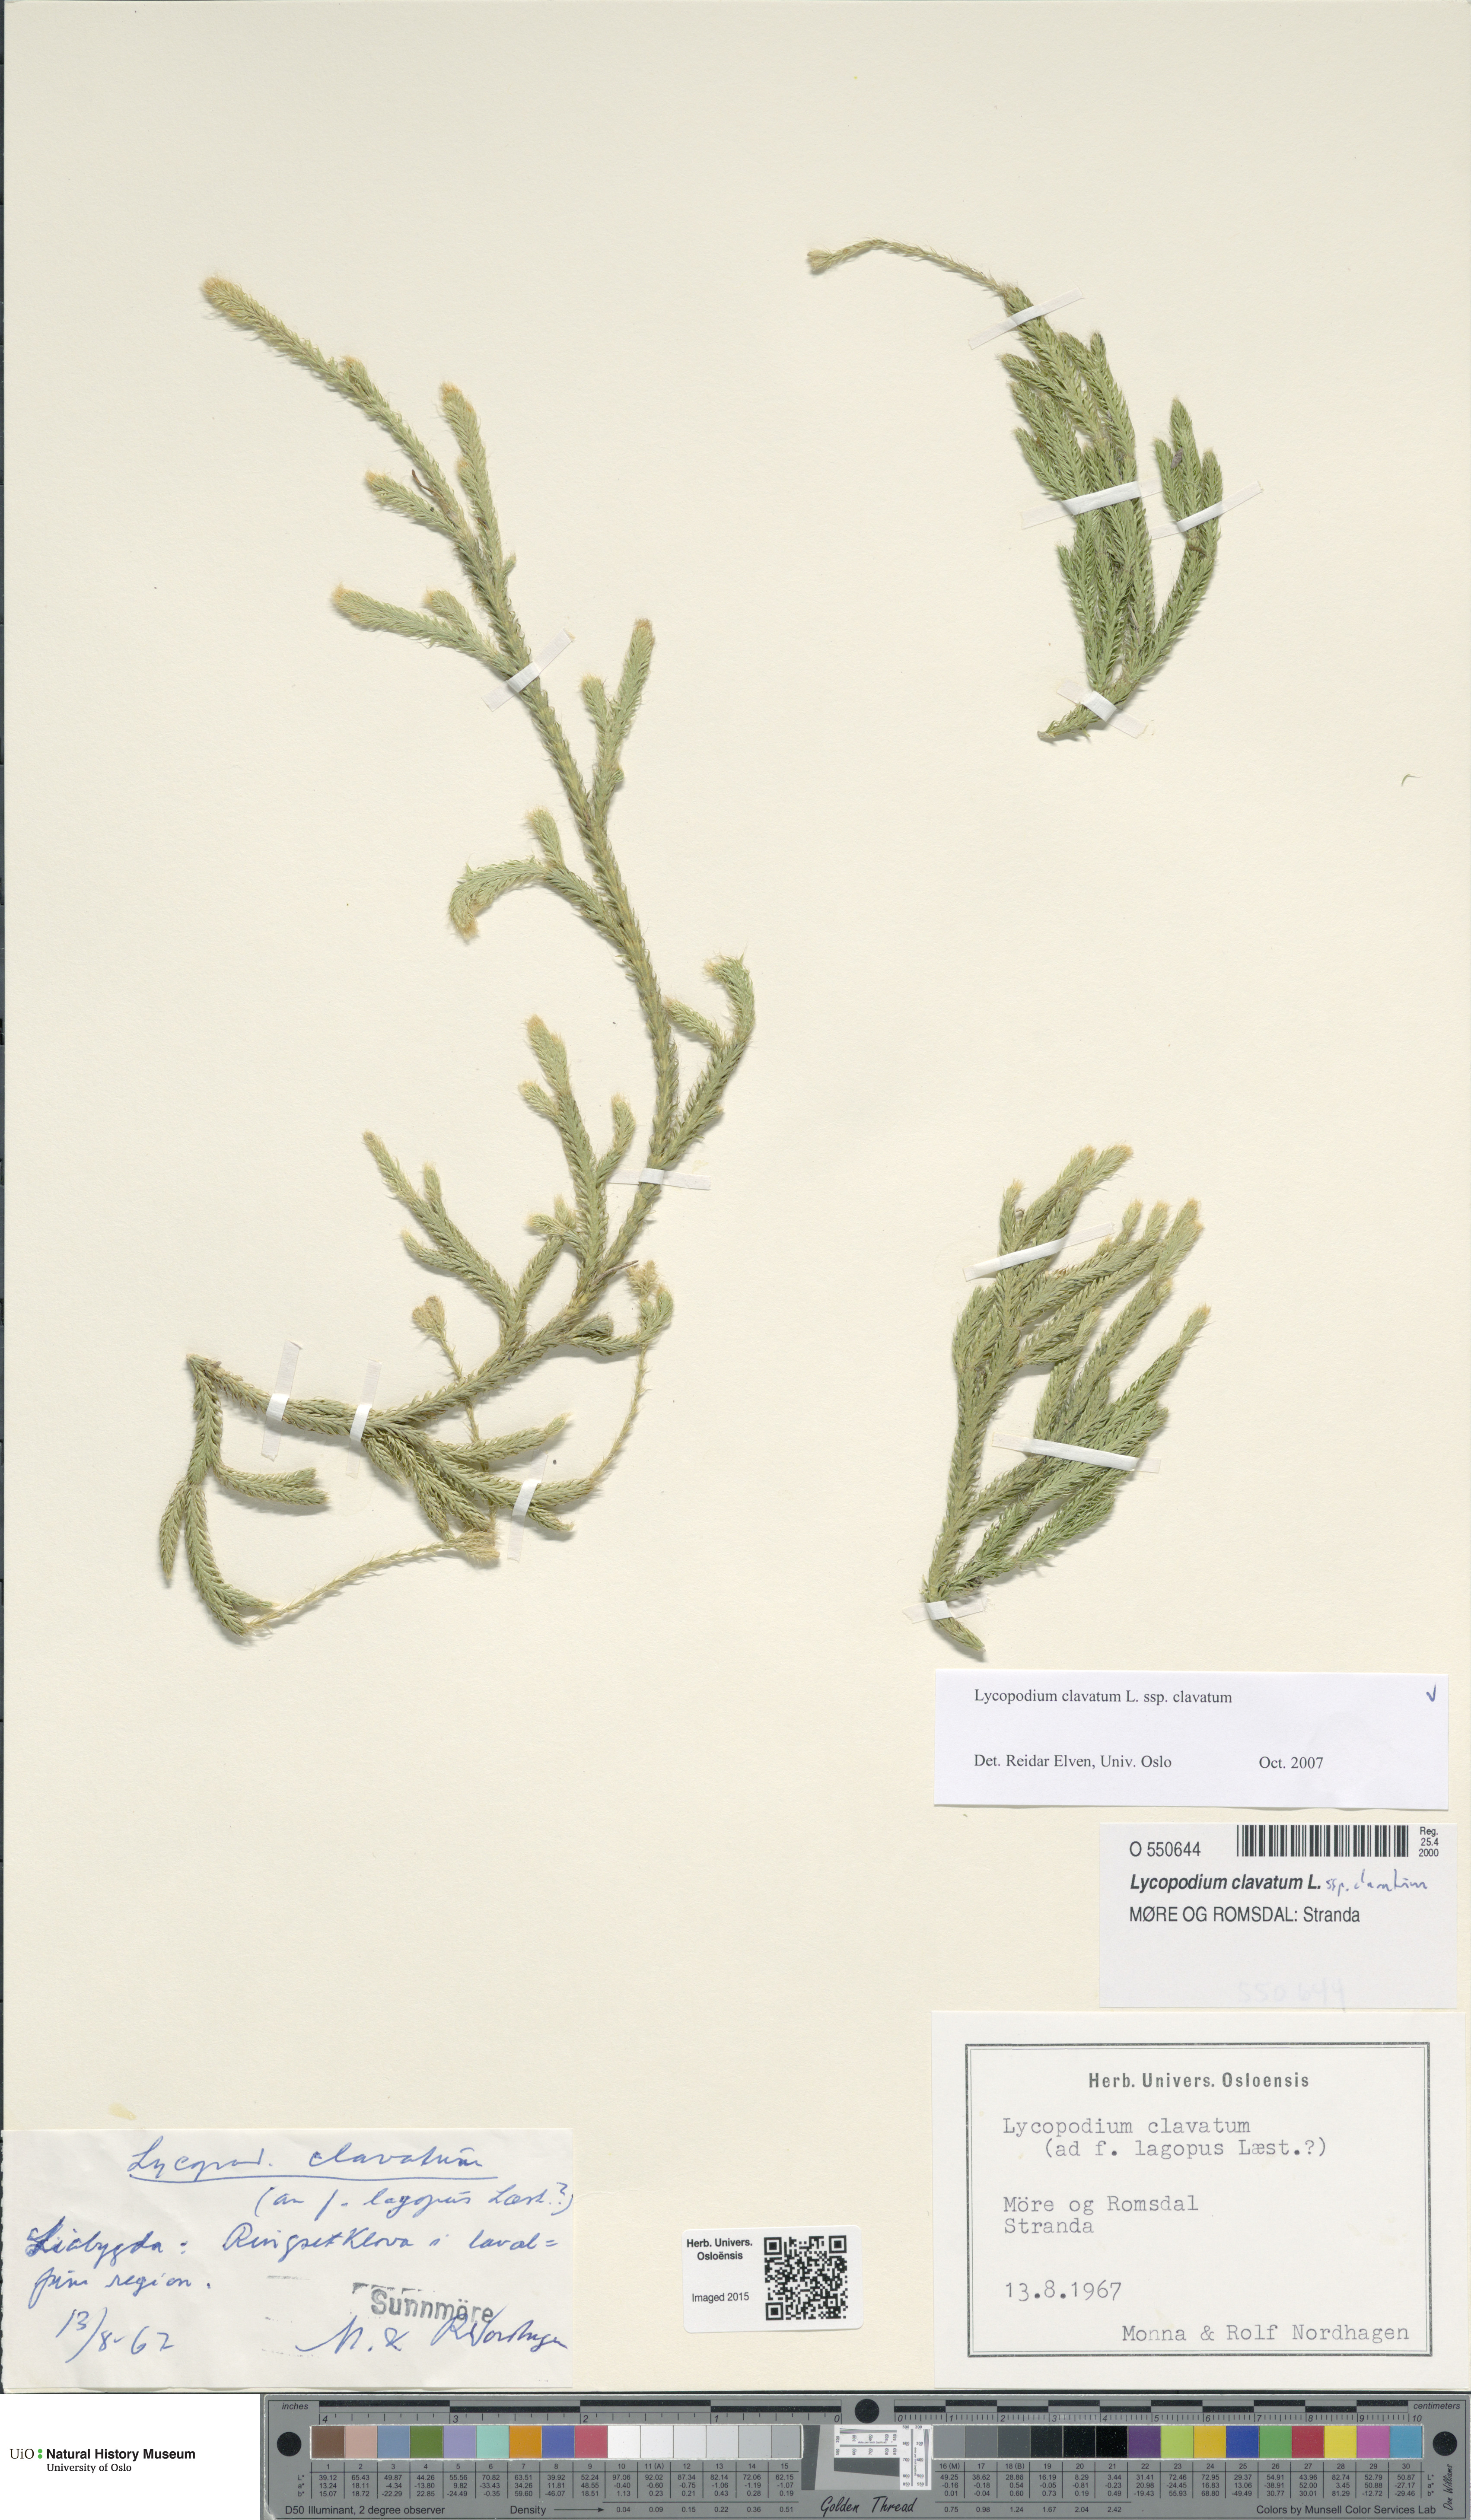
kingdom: Plantae
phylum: Tracheophyta
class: Lycopodiopsida
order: Lycopodiales
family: Lycopodiaceae
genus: Lycopodium
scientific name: Lycopodium clavatum
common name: Stag's-horn clubmoss
